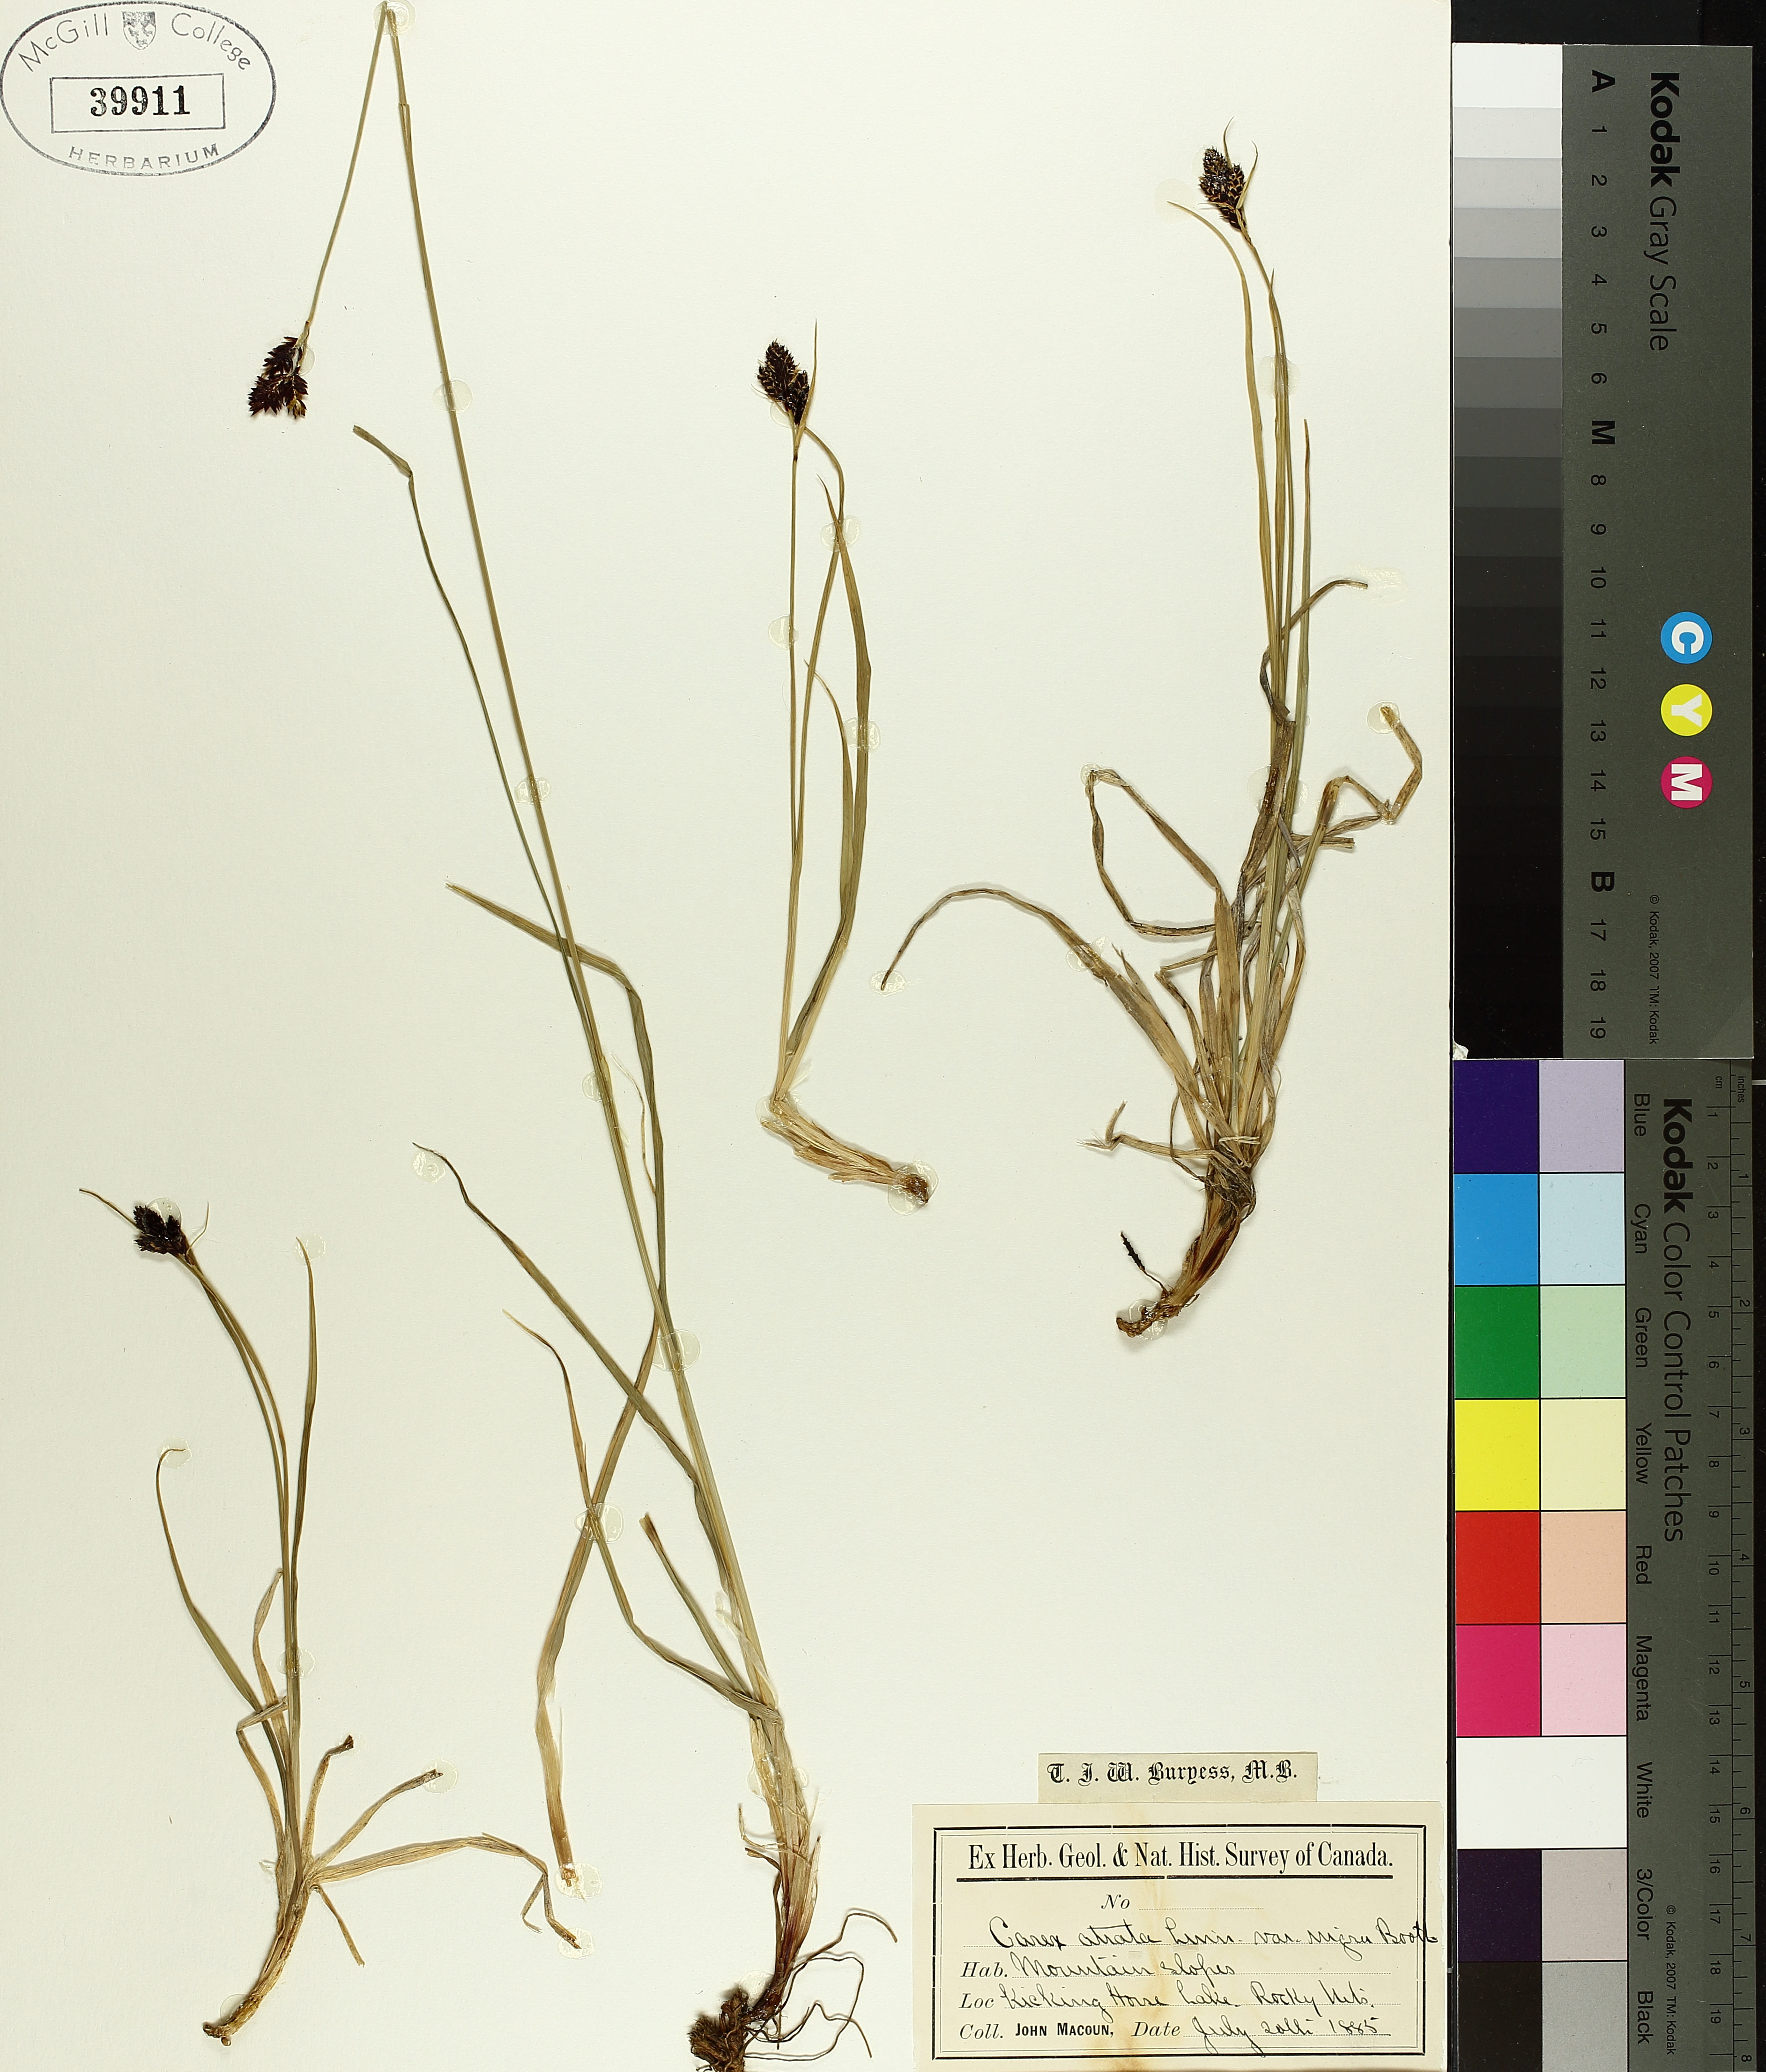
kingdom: Plantae
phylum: Tracheophyta
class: Liliopsida
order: Poales
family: Cyperaceae
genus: Carex
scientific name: Carex atrata
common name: Black alpine sedge
